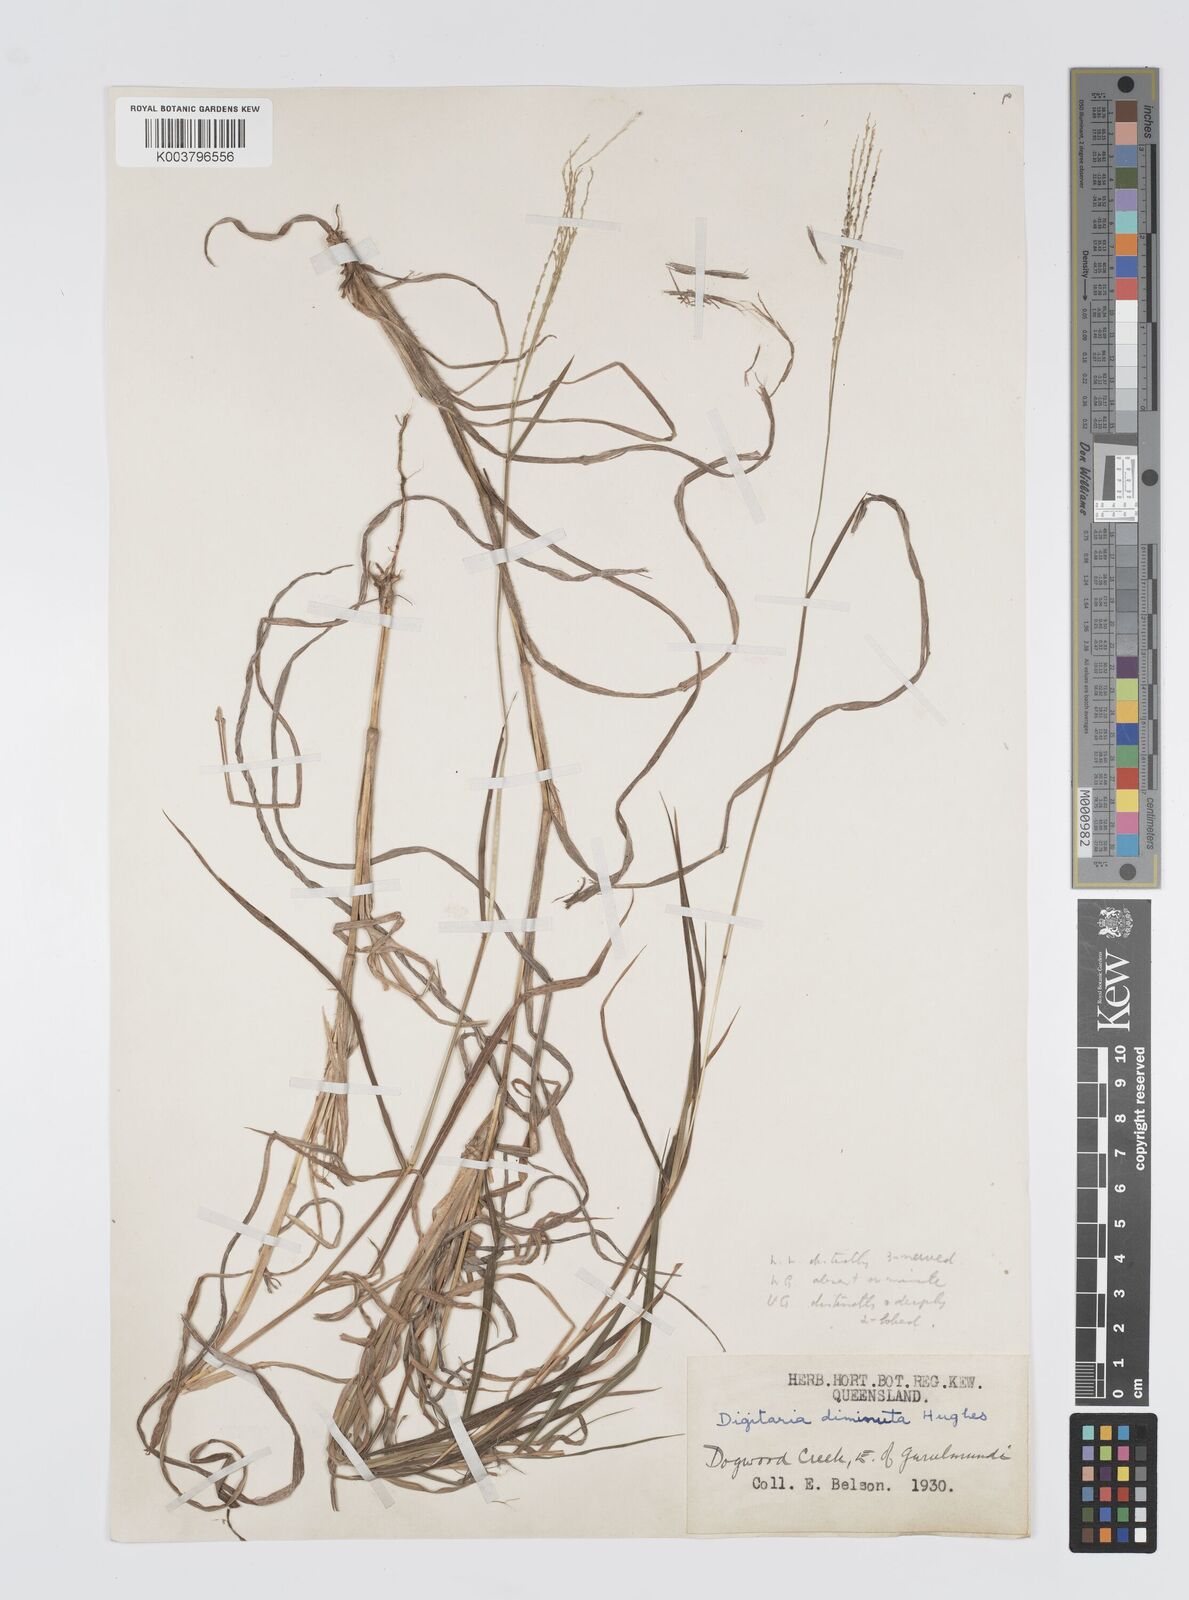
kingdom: Plantae
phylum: Tracheophyta
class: Liliopsida
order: Poales
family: Poaceae
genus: Digitaria
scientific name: Digitaria breviglumis
